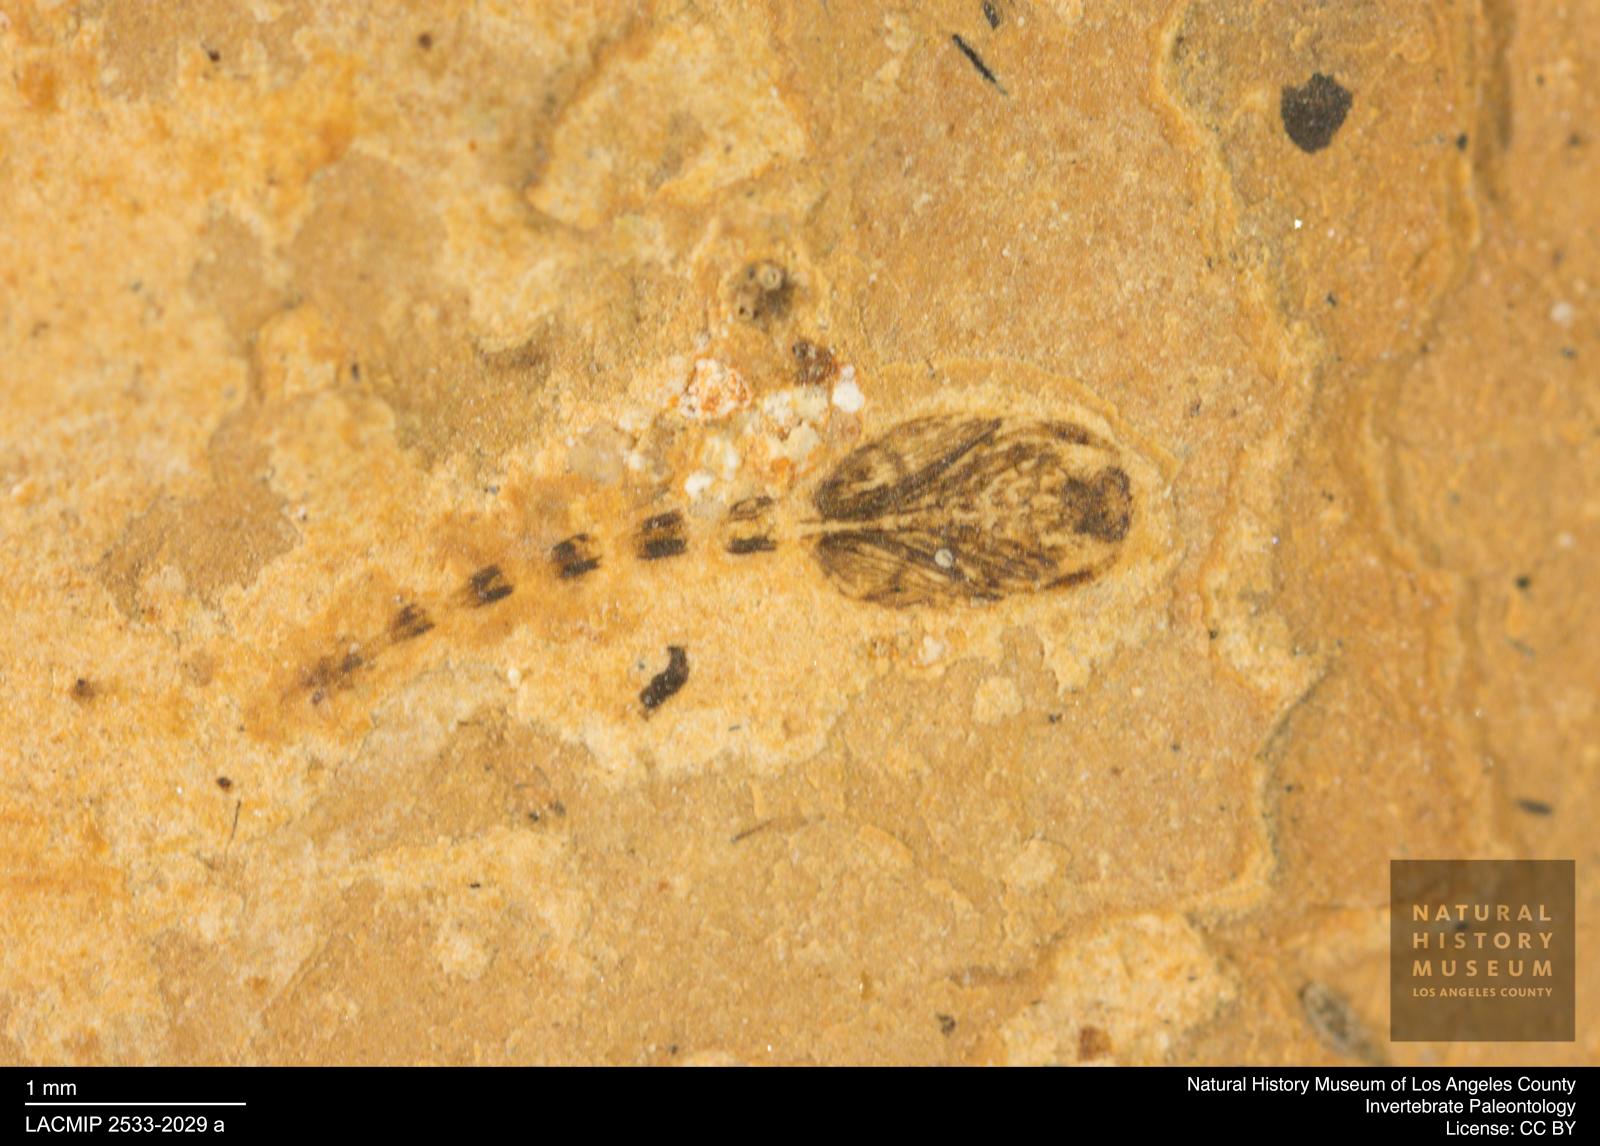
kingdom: Animalia
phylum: Arthropoda
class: Insecta
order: Diptera
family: Ceratopogonidae
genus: Ceratopogon
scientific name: Ceratopogon
